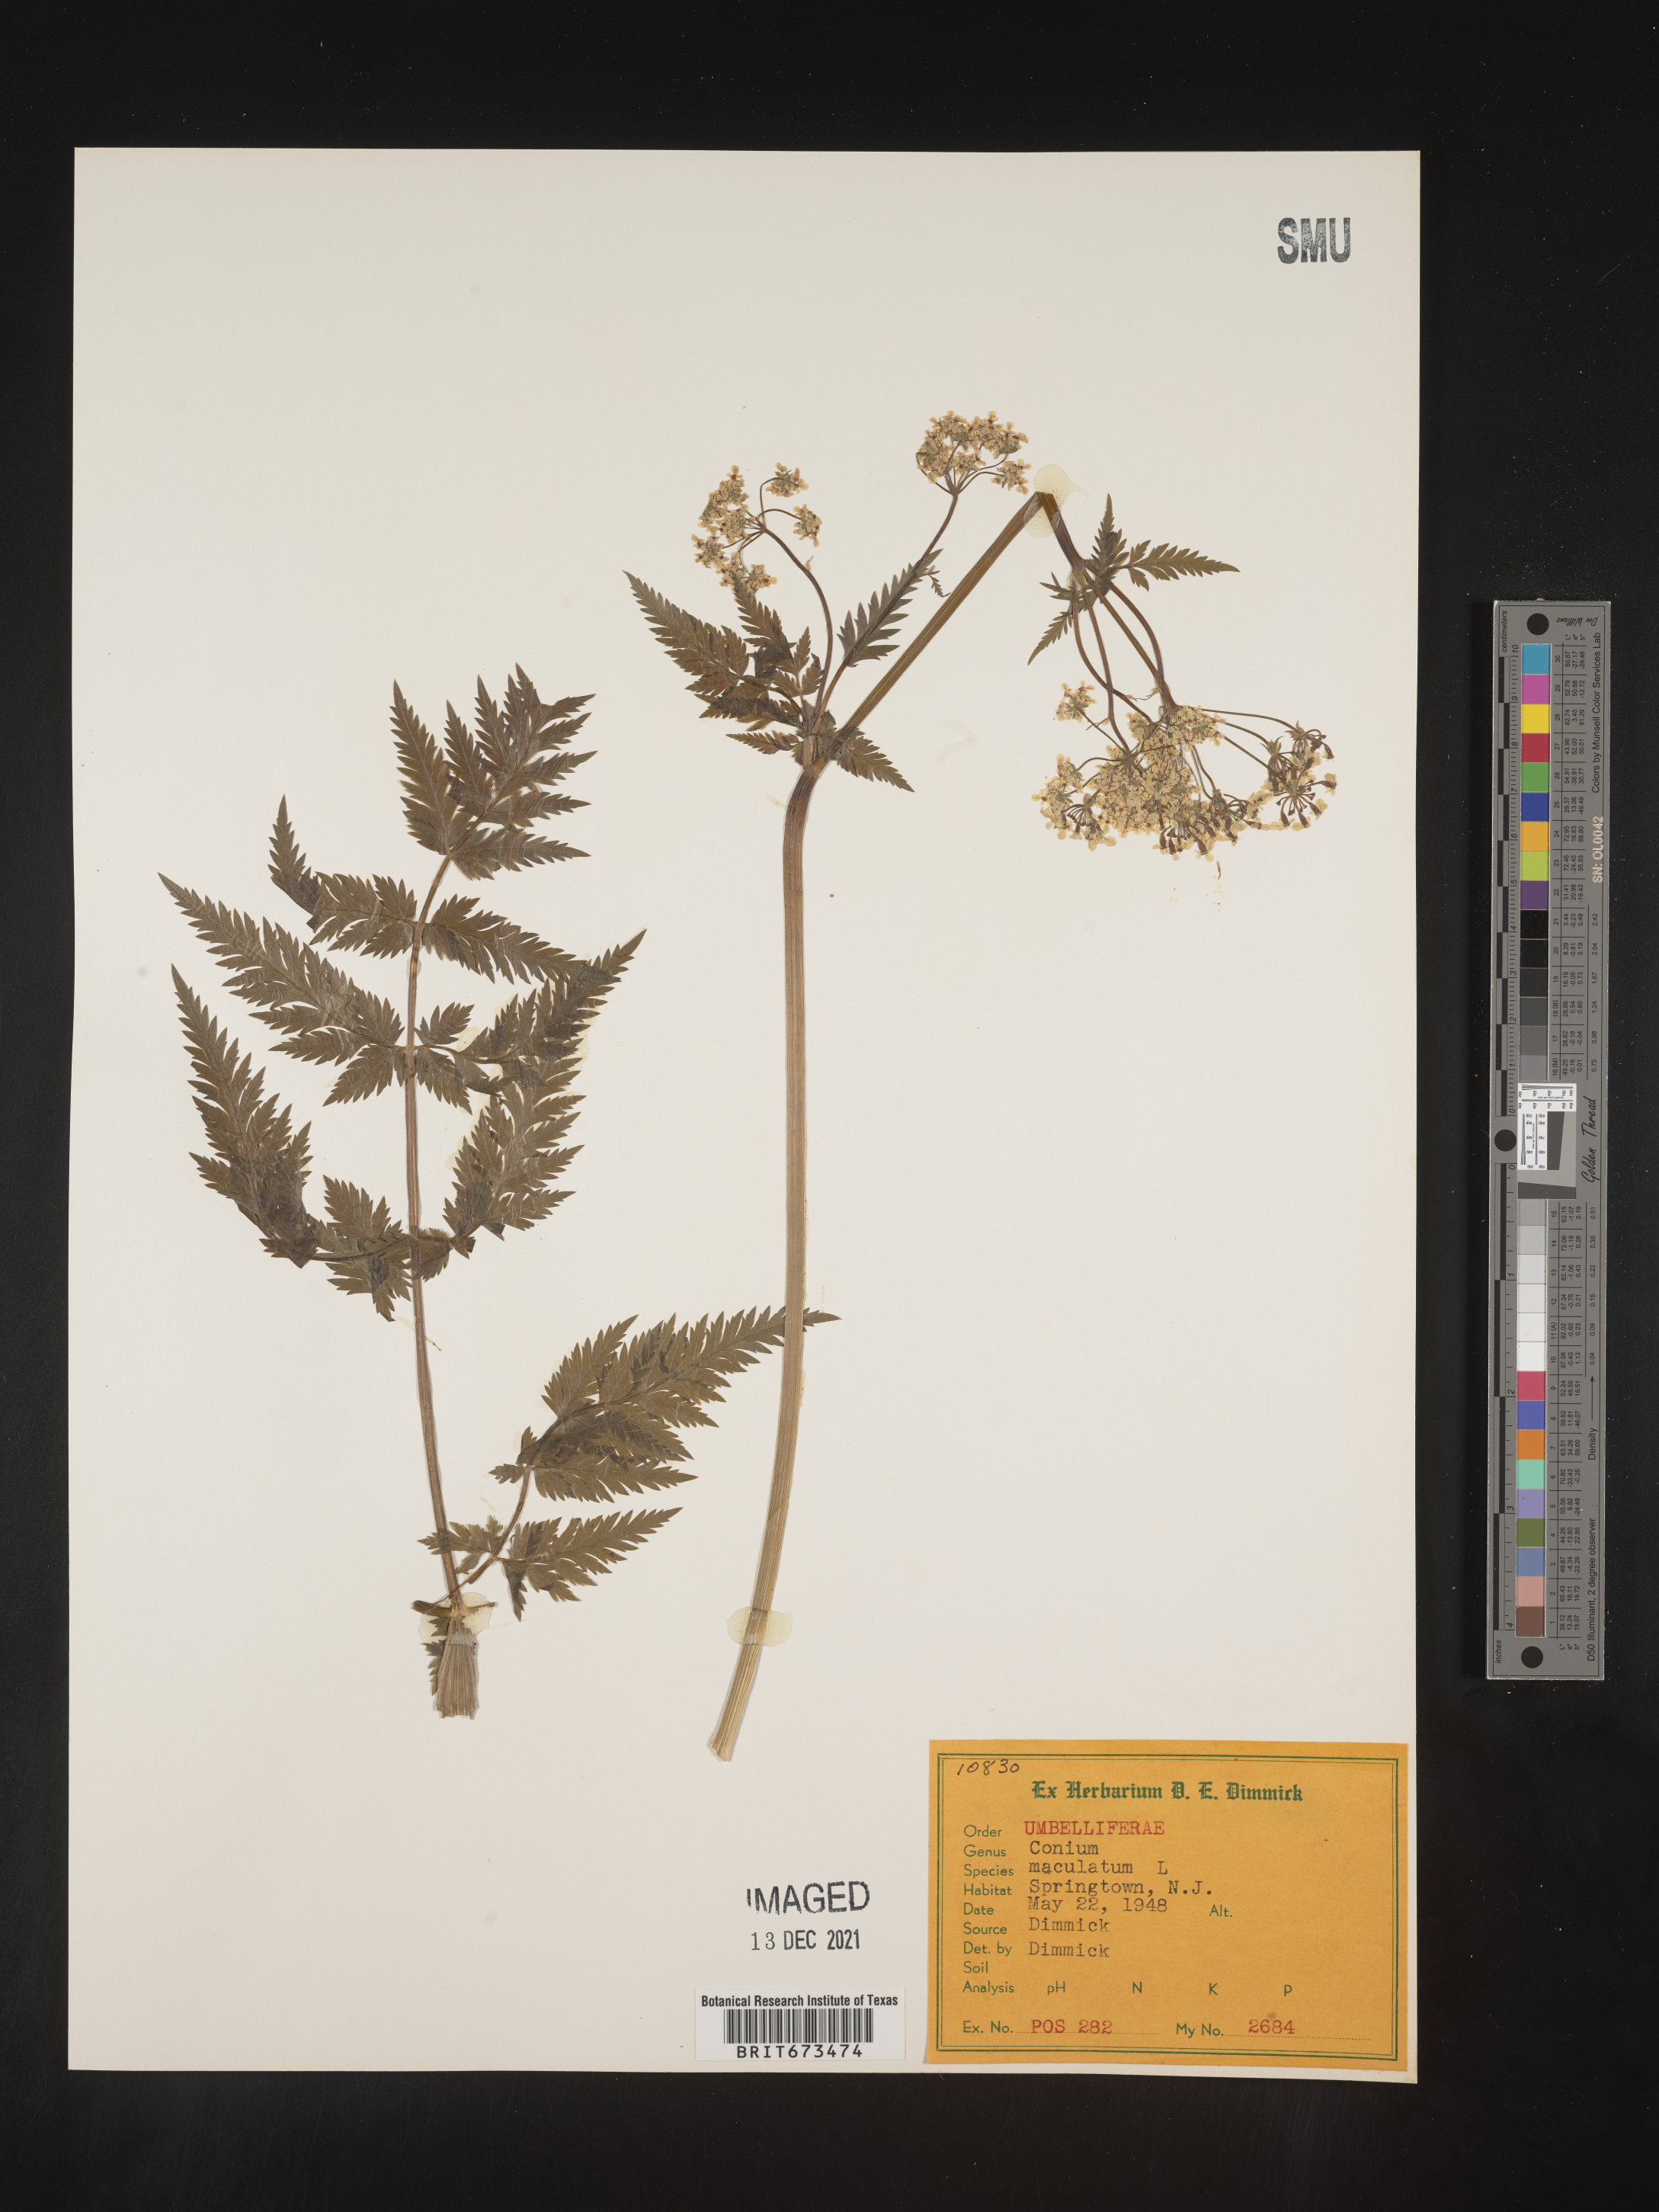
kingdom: Plantae
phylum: Tracheophyta
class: Magnoliopsida
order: Apiales
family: Apiaceae
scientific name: Apiaceae
